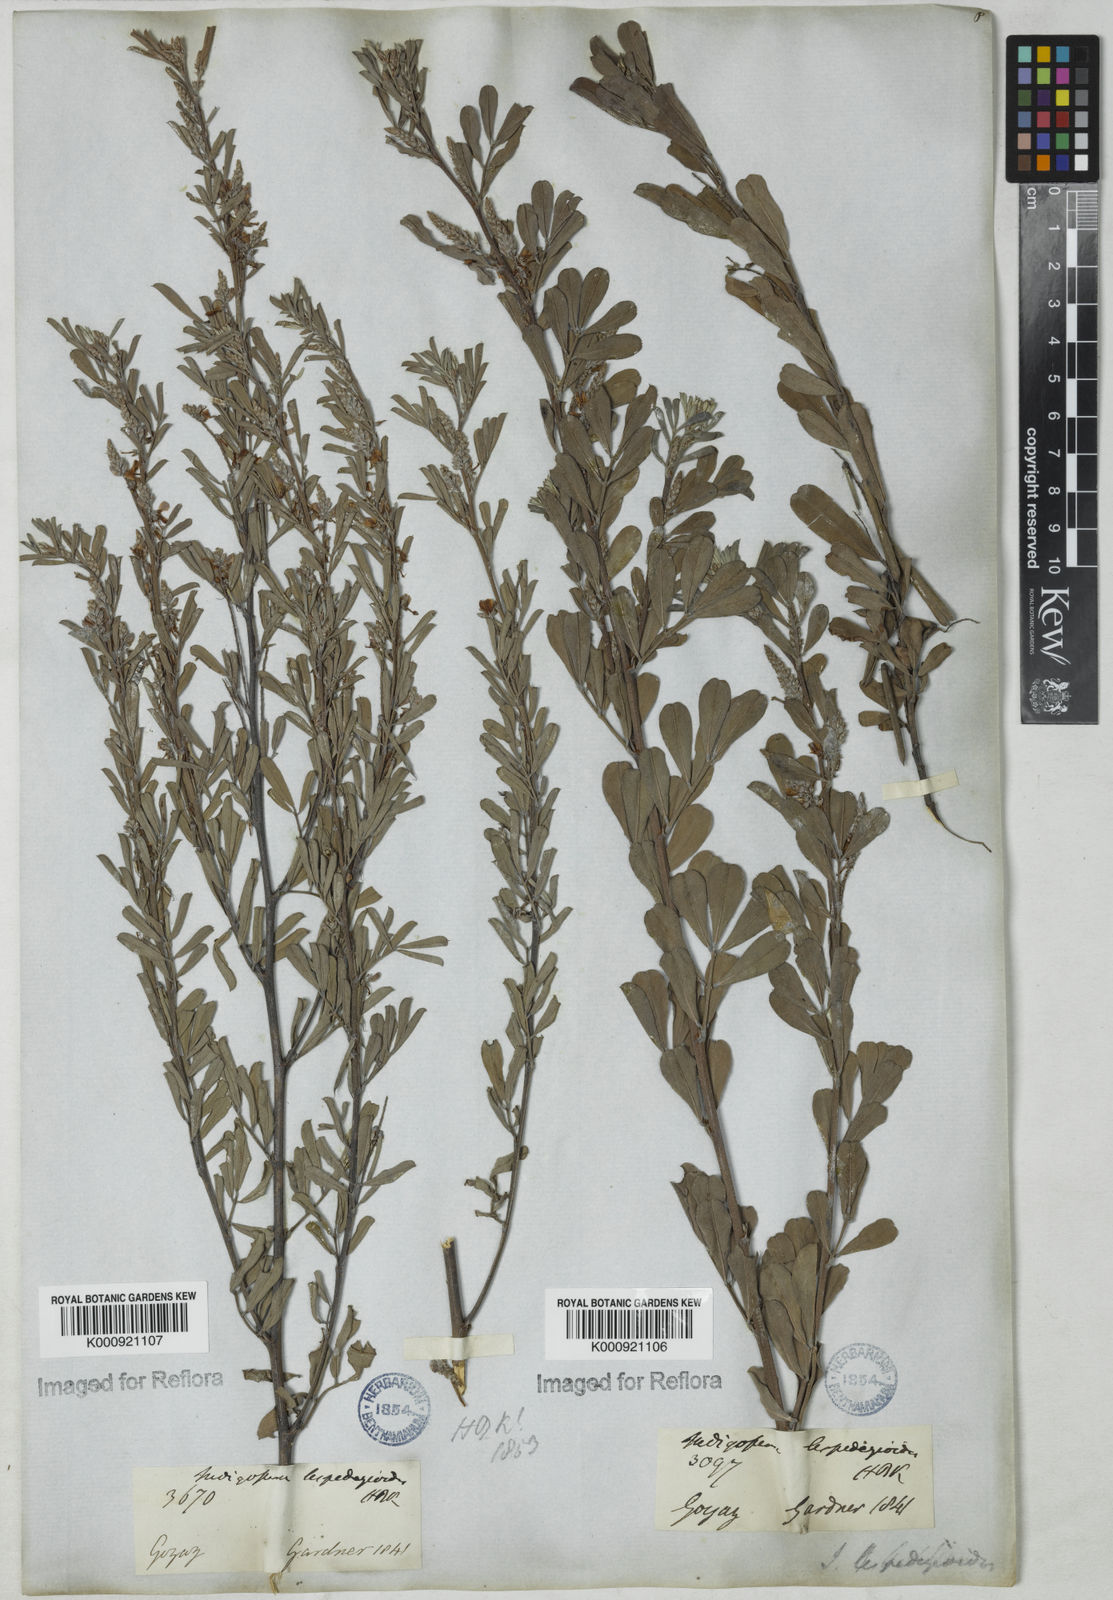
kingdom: Plantae
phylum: Tracheophyta
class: Magnoliopsida
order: Fabales
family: Fabaceae
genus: Indigofera
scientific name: Indigofera lespedezioides
